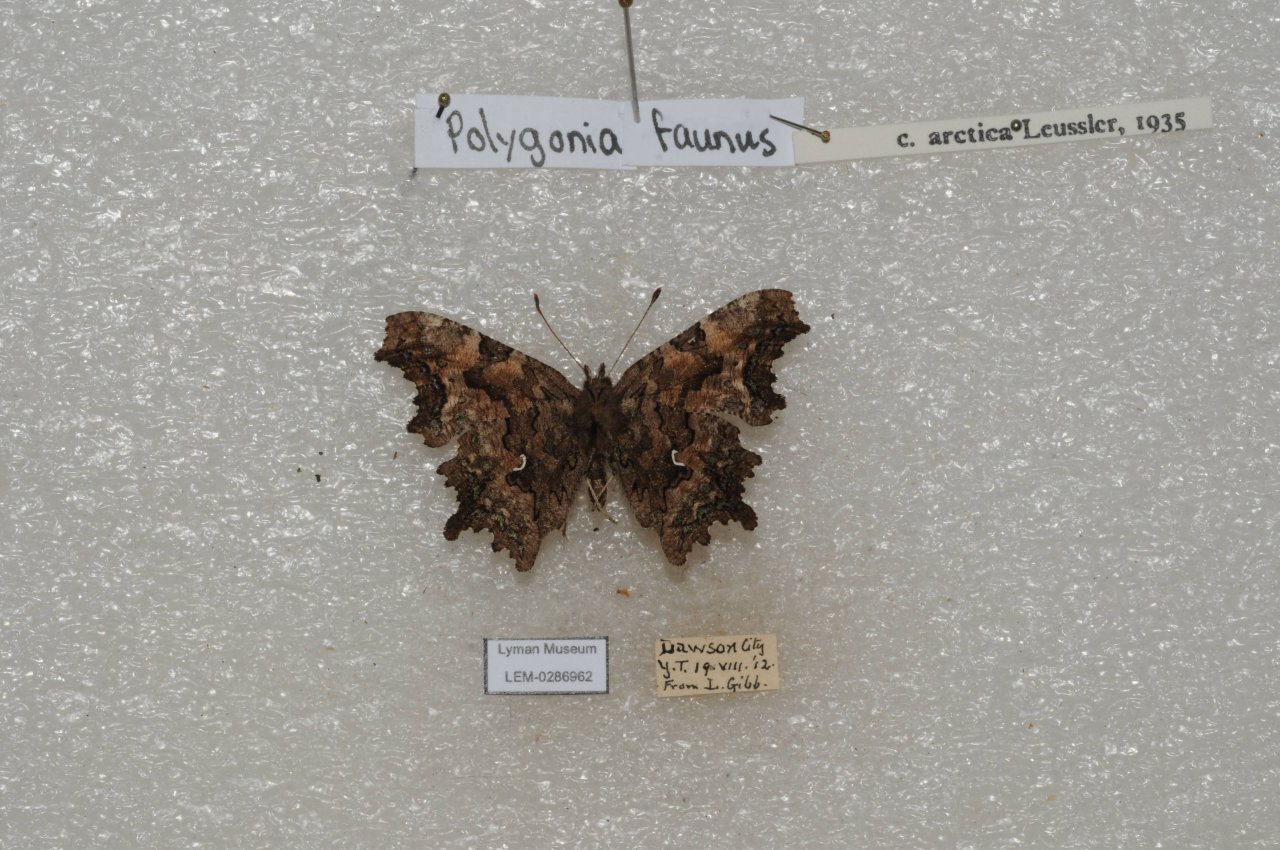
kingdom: Animalia
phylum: Arthropoda
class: Insecta
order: Lepidoptera
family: Nymphalidae
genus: Polygonia
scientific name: Polygonia faunus
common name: Green Comma
